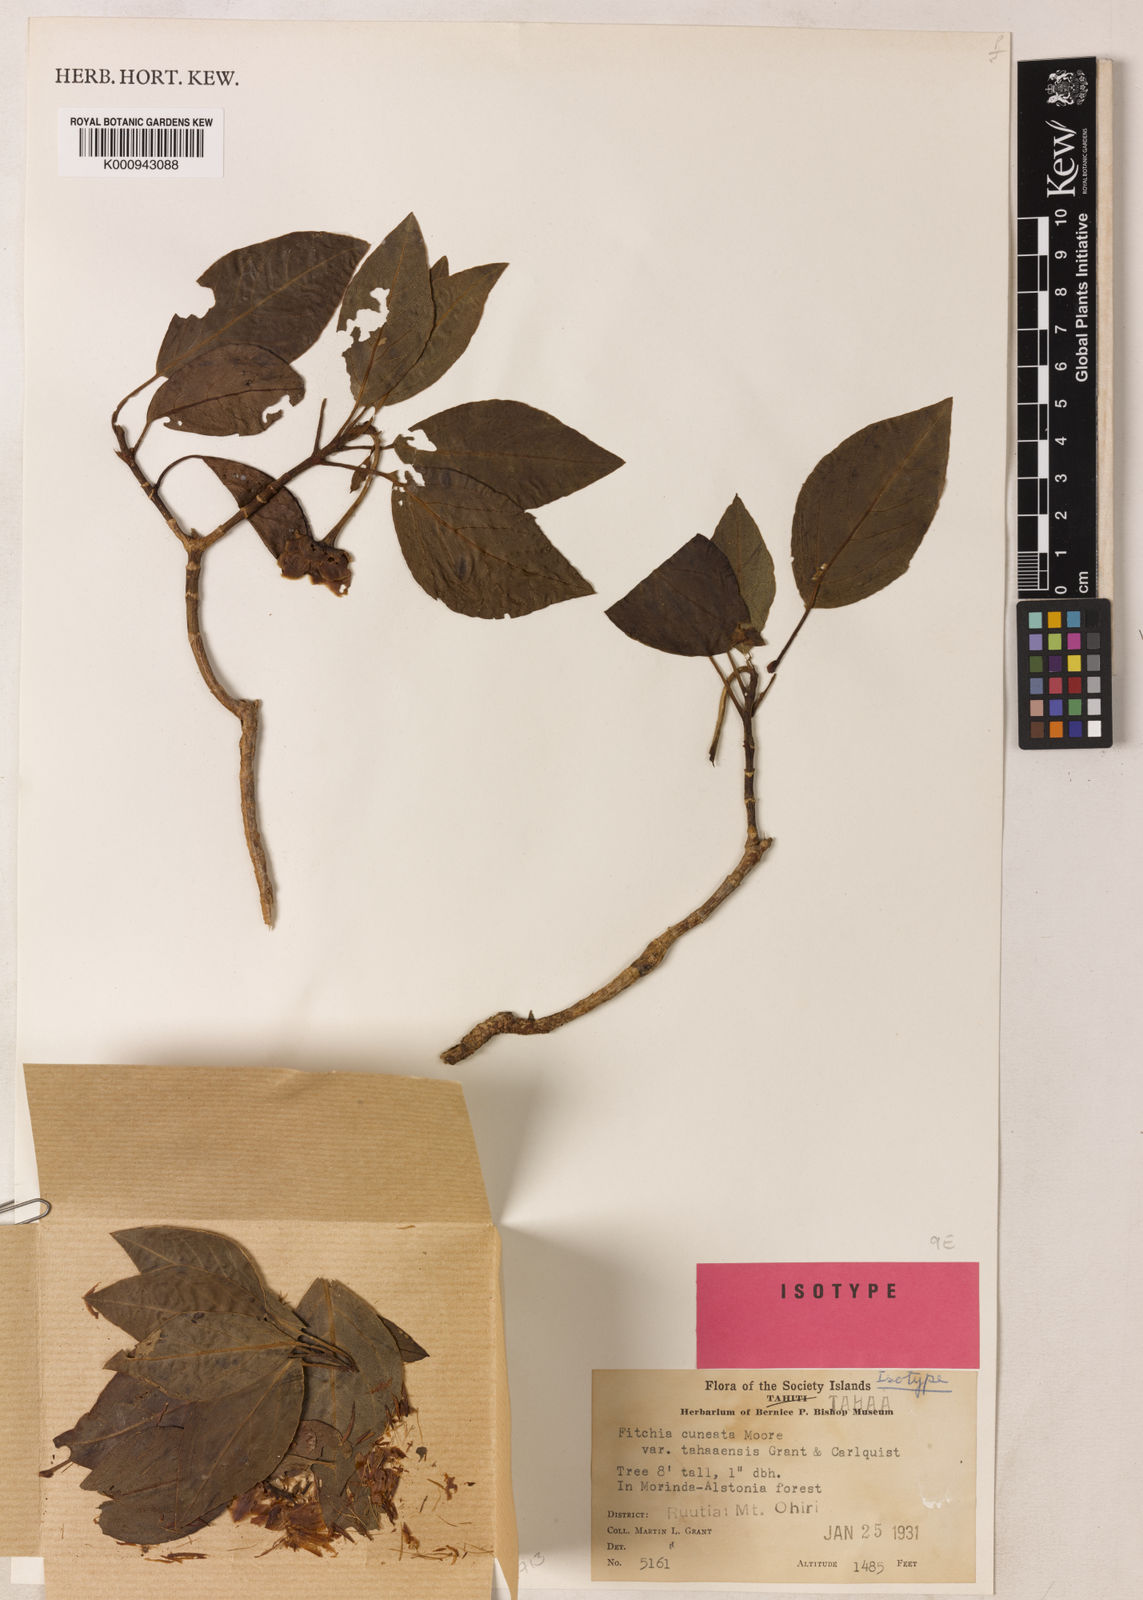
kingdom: Plantae
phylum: Tracheophyta
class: Magnoliopsida
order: Asterales
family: Asteraceae
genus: Fitchia
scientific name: Fitchia tahitensis
